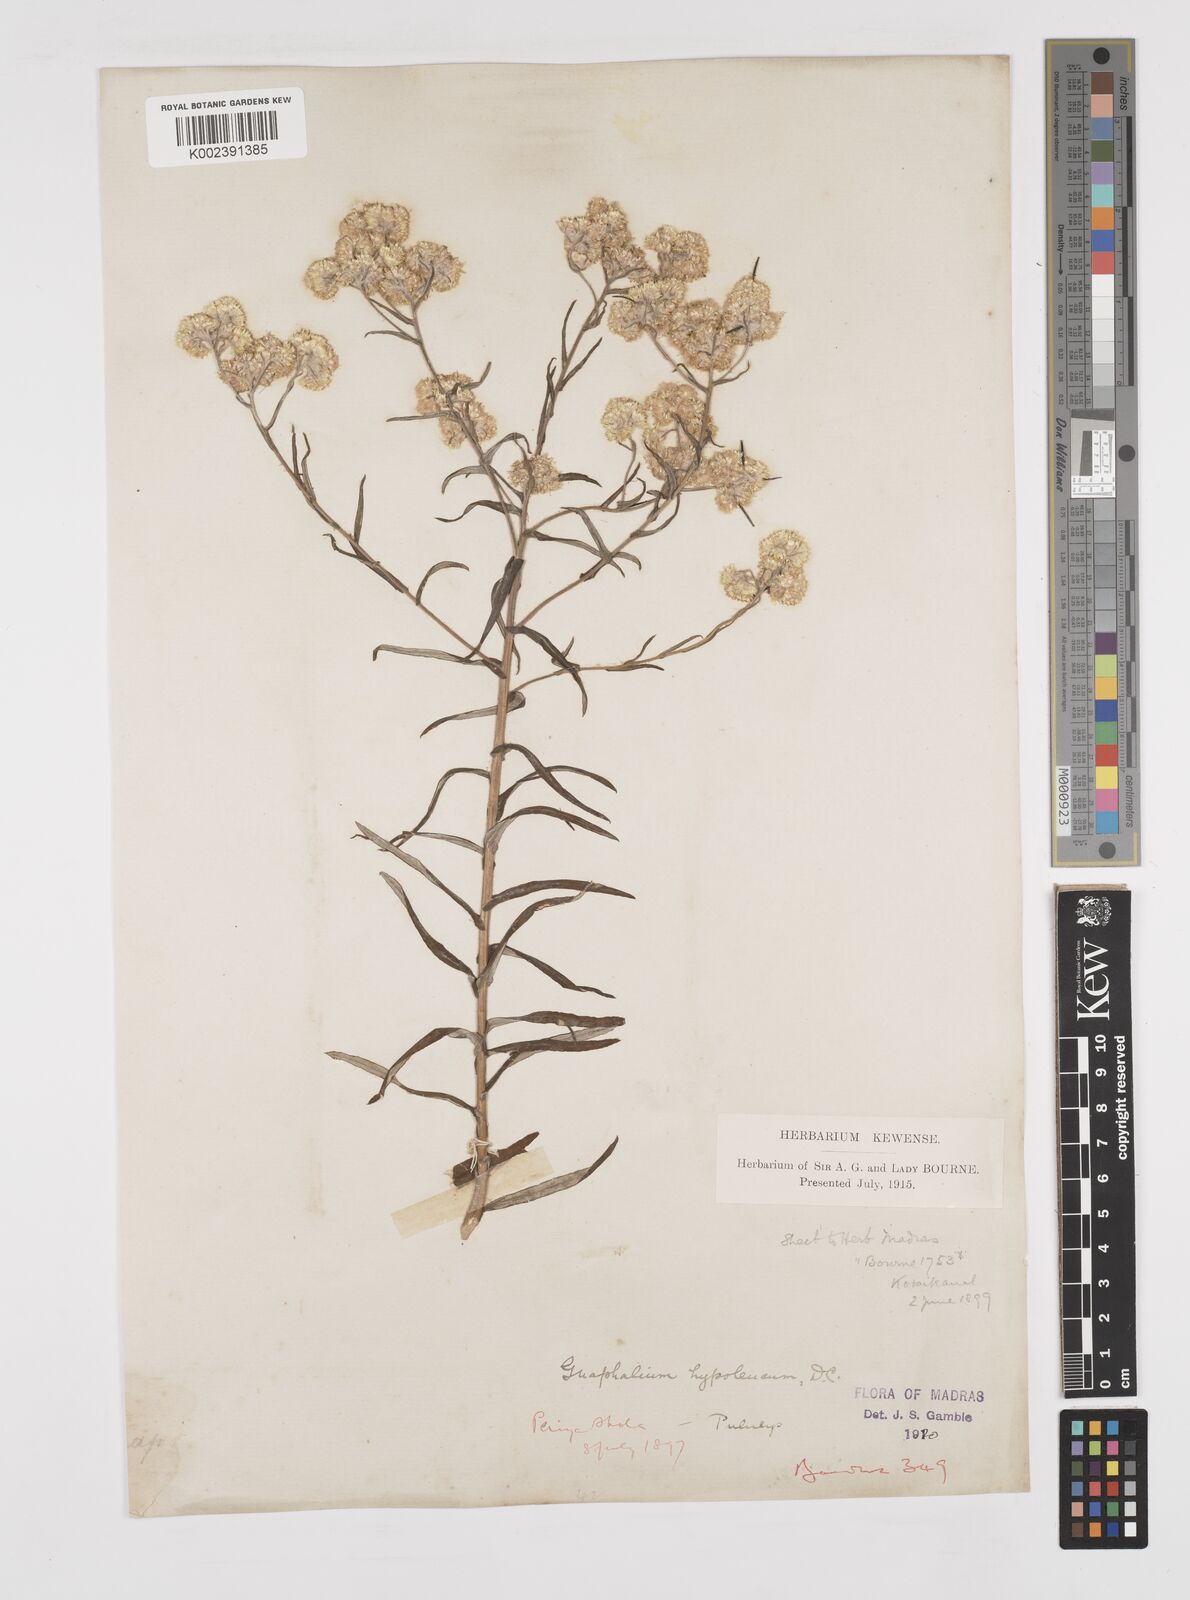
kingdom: Plantae
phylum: Tracheophyta
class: Magnoliopsida
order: Asterales
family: Asteraceae
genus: Pseudognaphalium
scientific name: Pseudognaphalium hypoleucum
